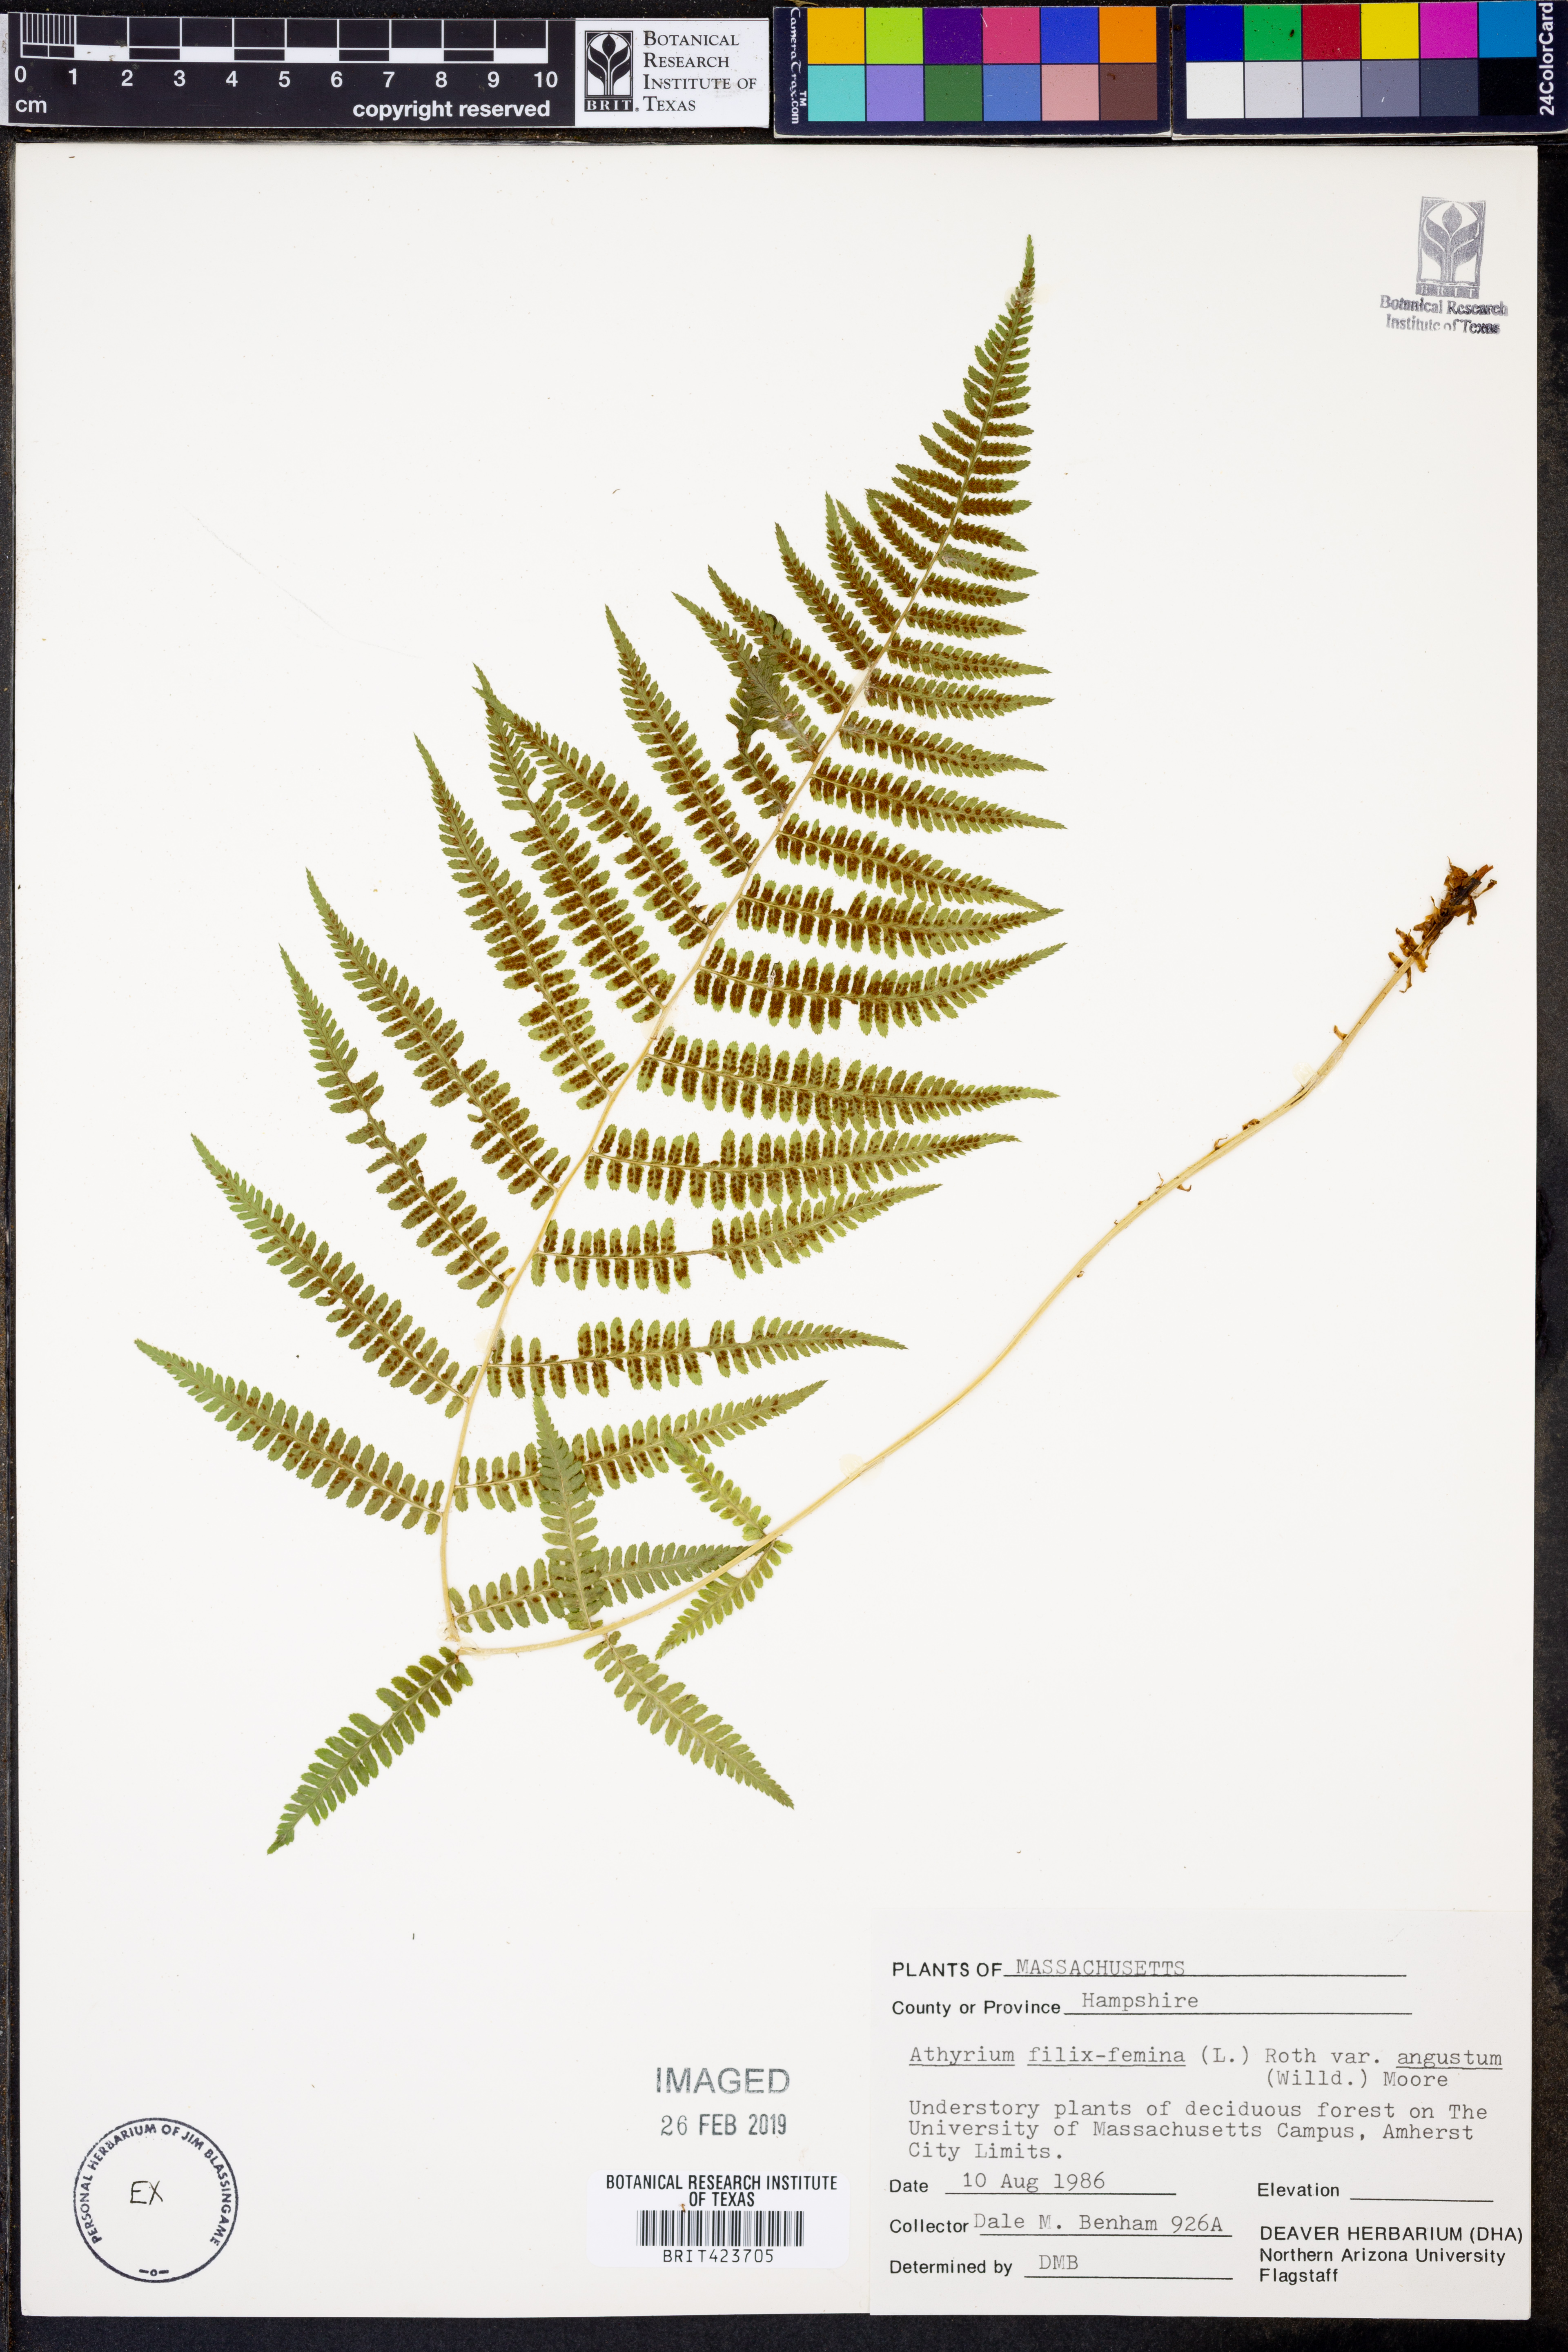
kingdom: Plantae
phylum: Tracheophyta
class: Polypodiopsida
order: Polypodiales
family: Athyriaceae
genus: Athyrium
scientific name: Athyrium angustum
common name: Northern lady fern
